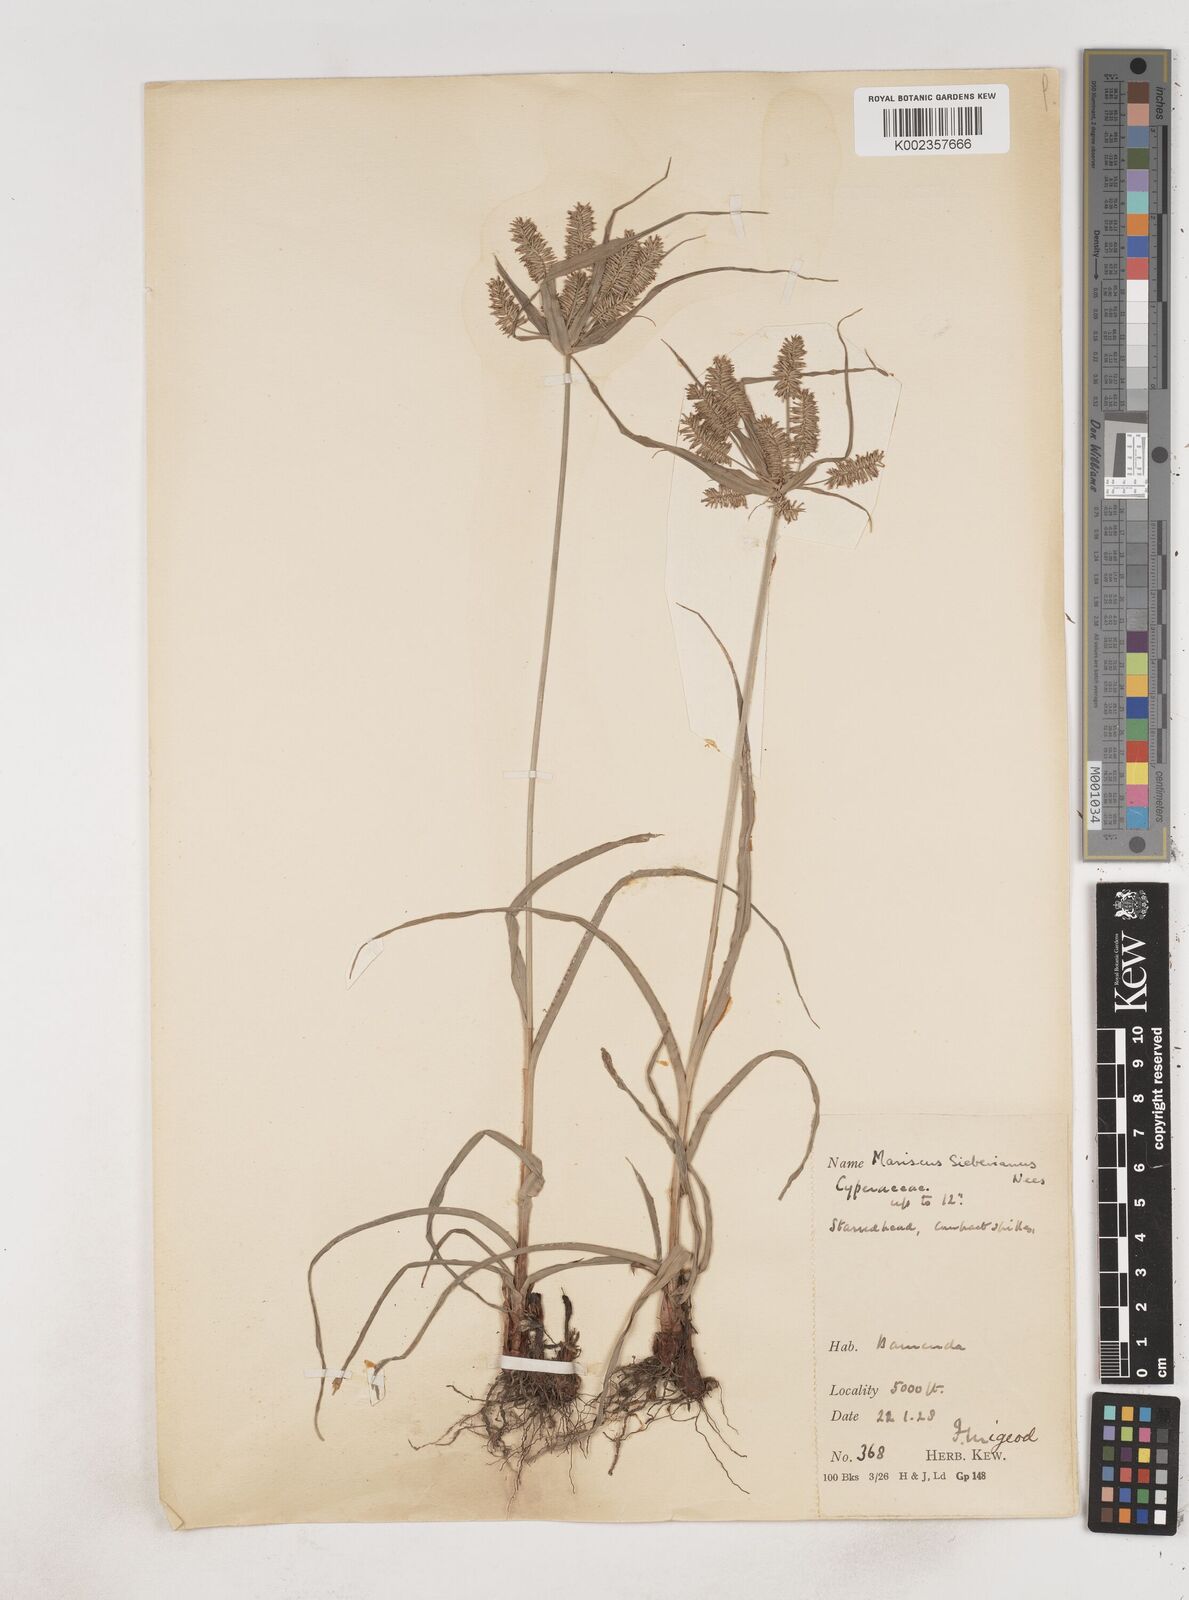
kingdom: Plantae
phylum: Tracheophyta
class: Liliopsida
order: Poales
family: Cyperaceae
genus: Cyperus
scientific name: Cyperus cyperoides
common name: Pacific island flat sedge
